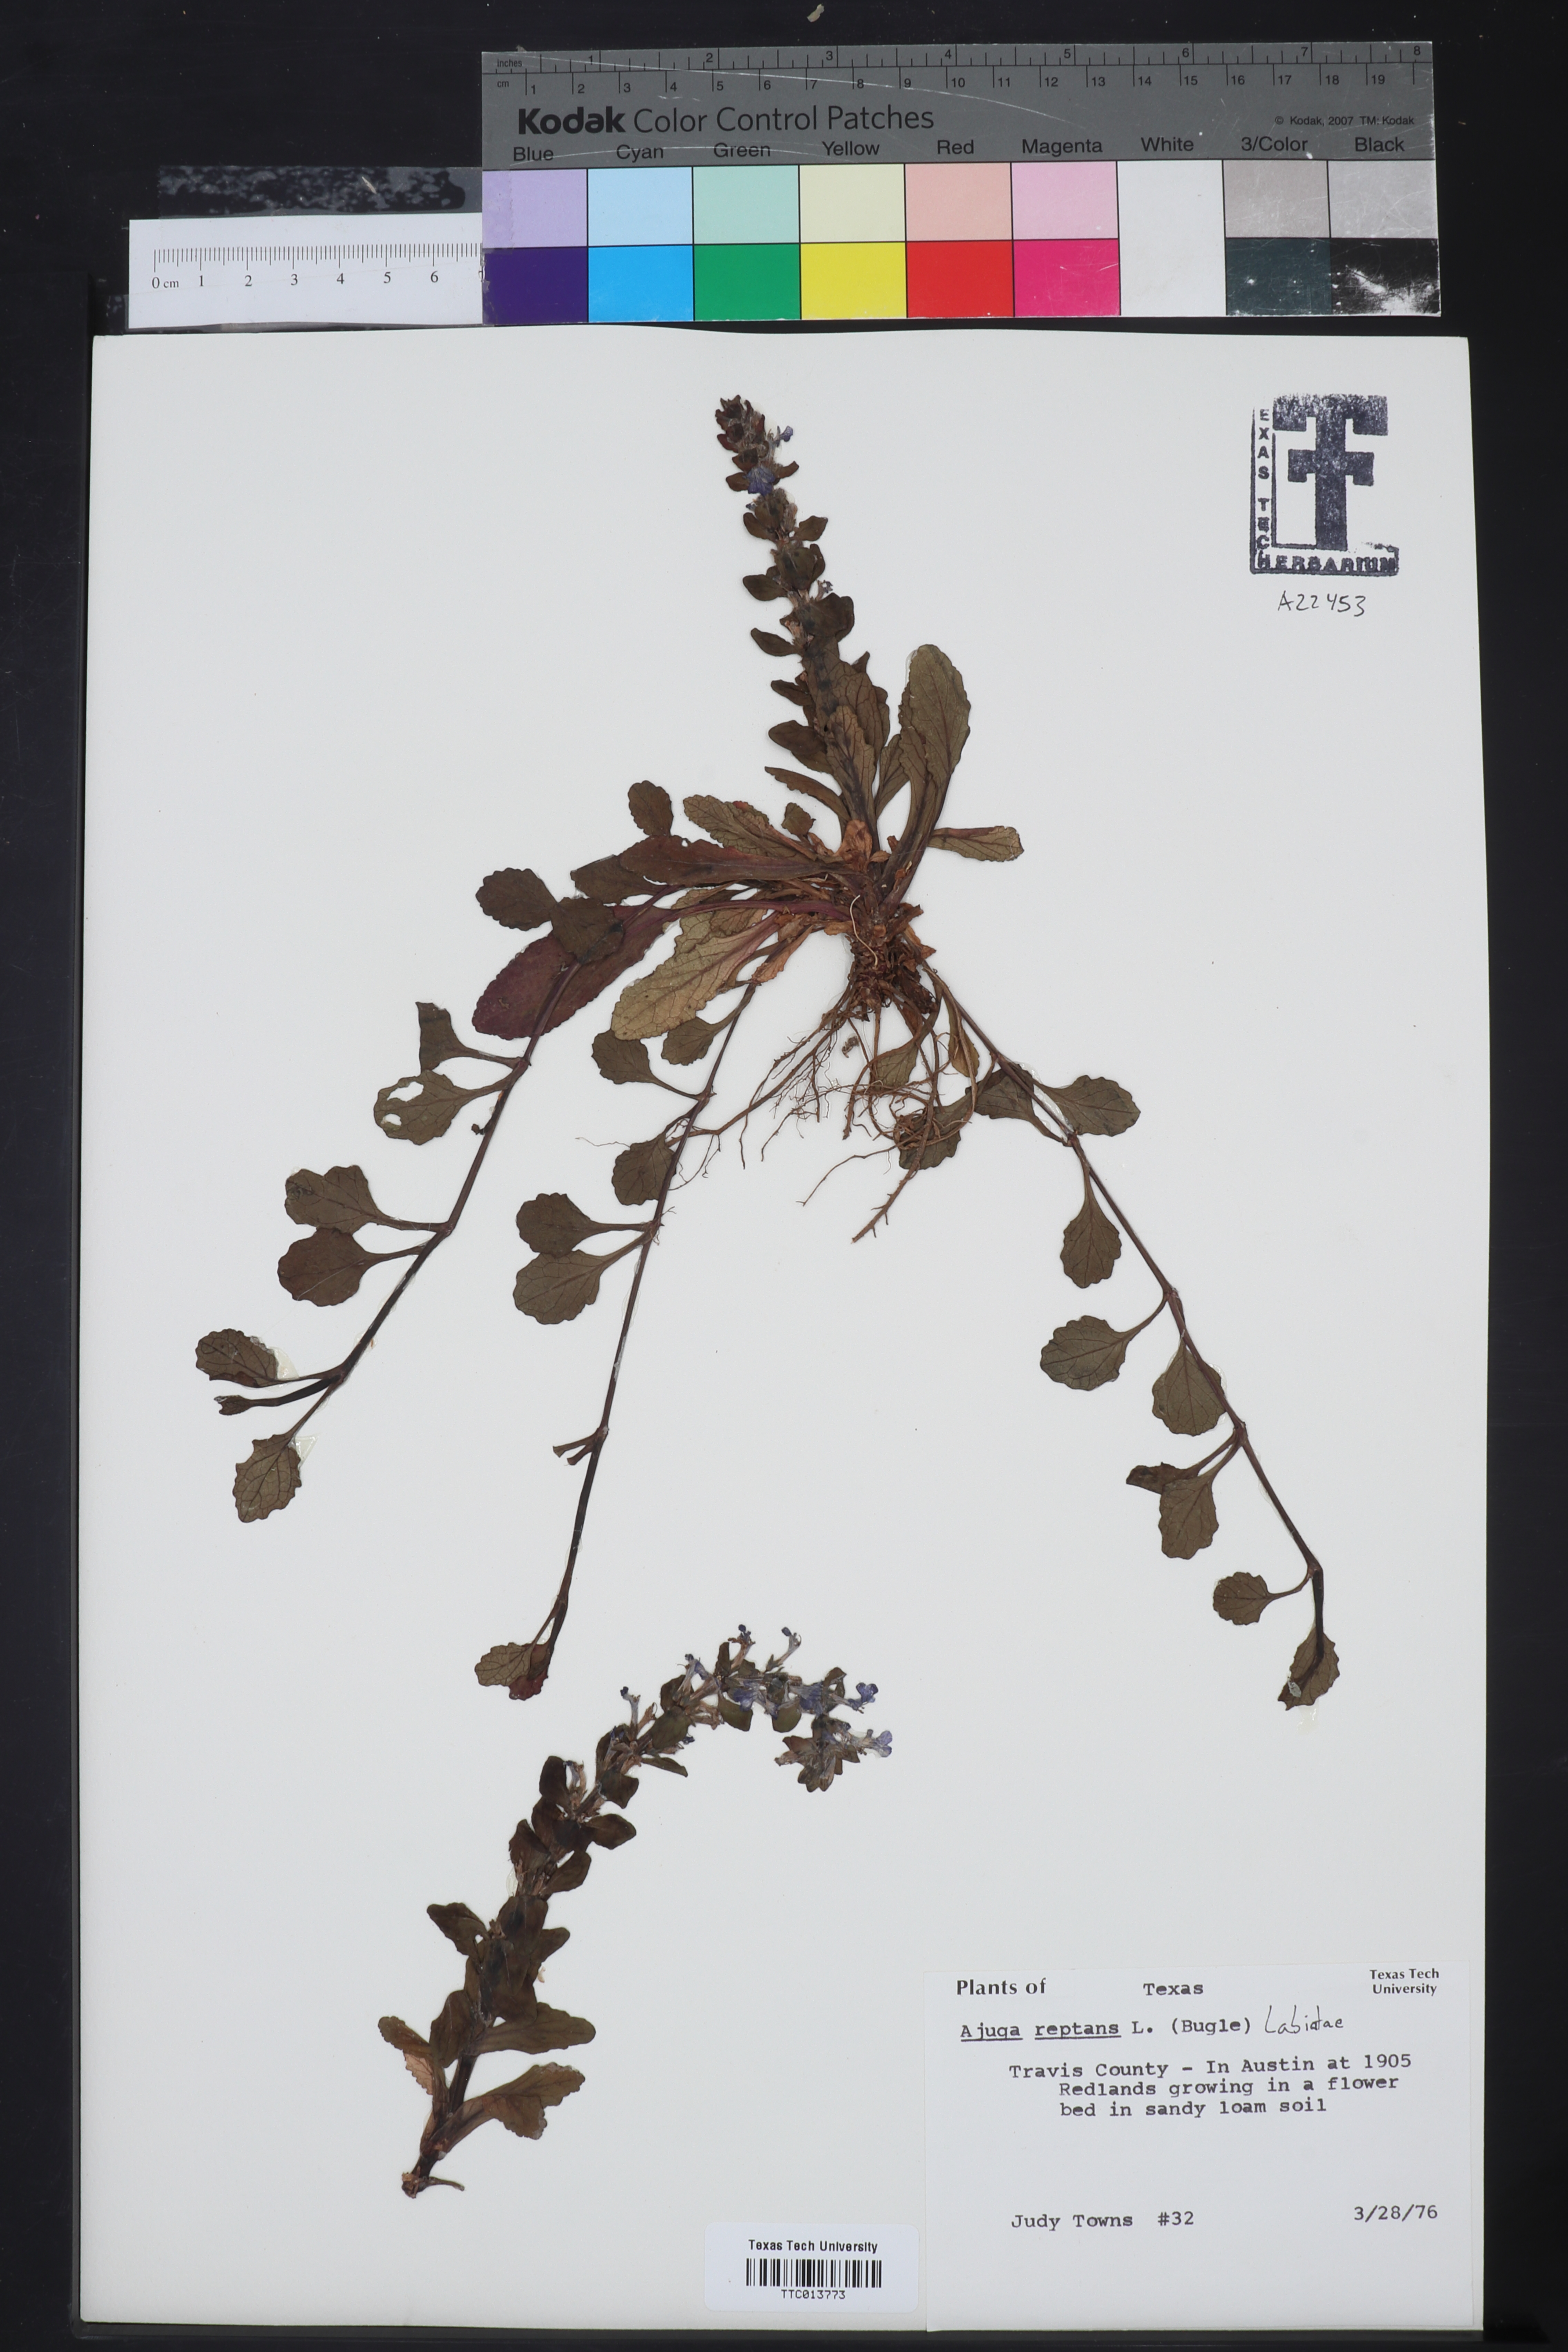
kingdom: Plantae
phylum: Tracheophyta
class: Magnoliopsida
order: Lamiales
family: Lamiaceae
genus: Ajuga
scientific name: Ajuga reptans
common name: Bugle
